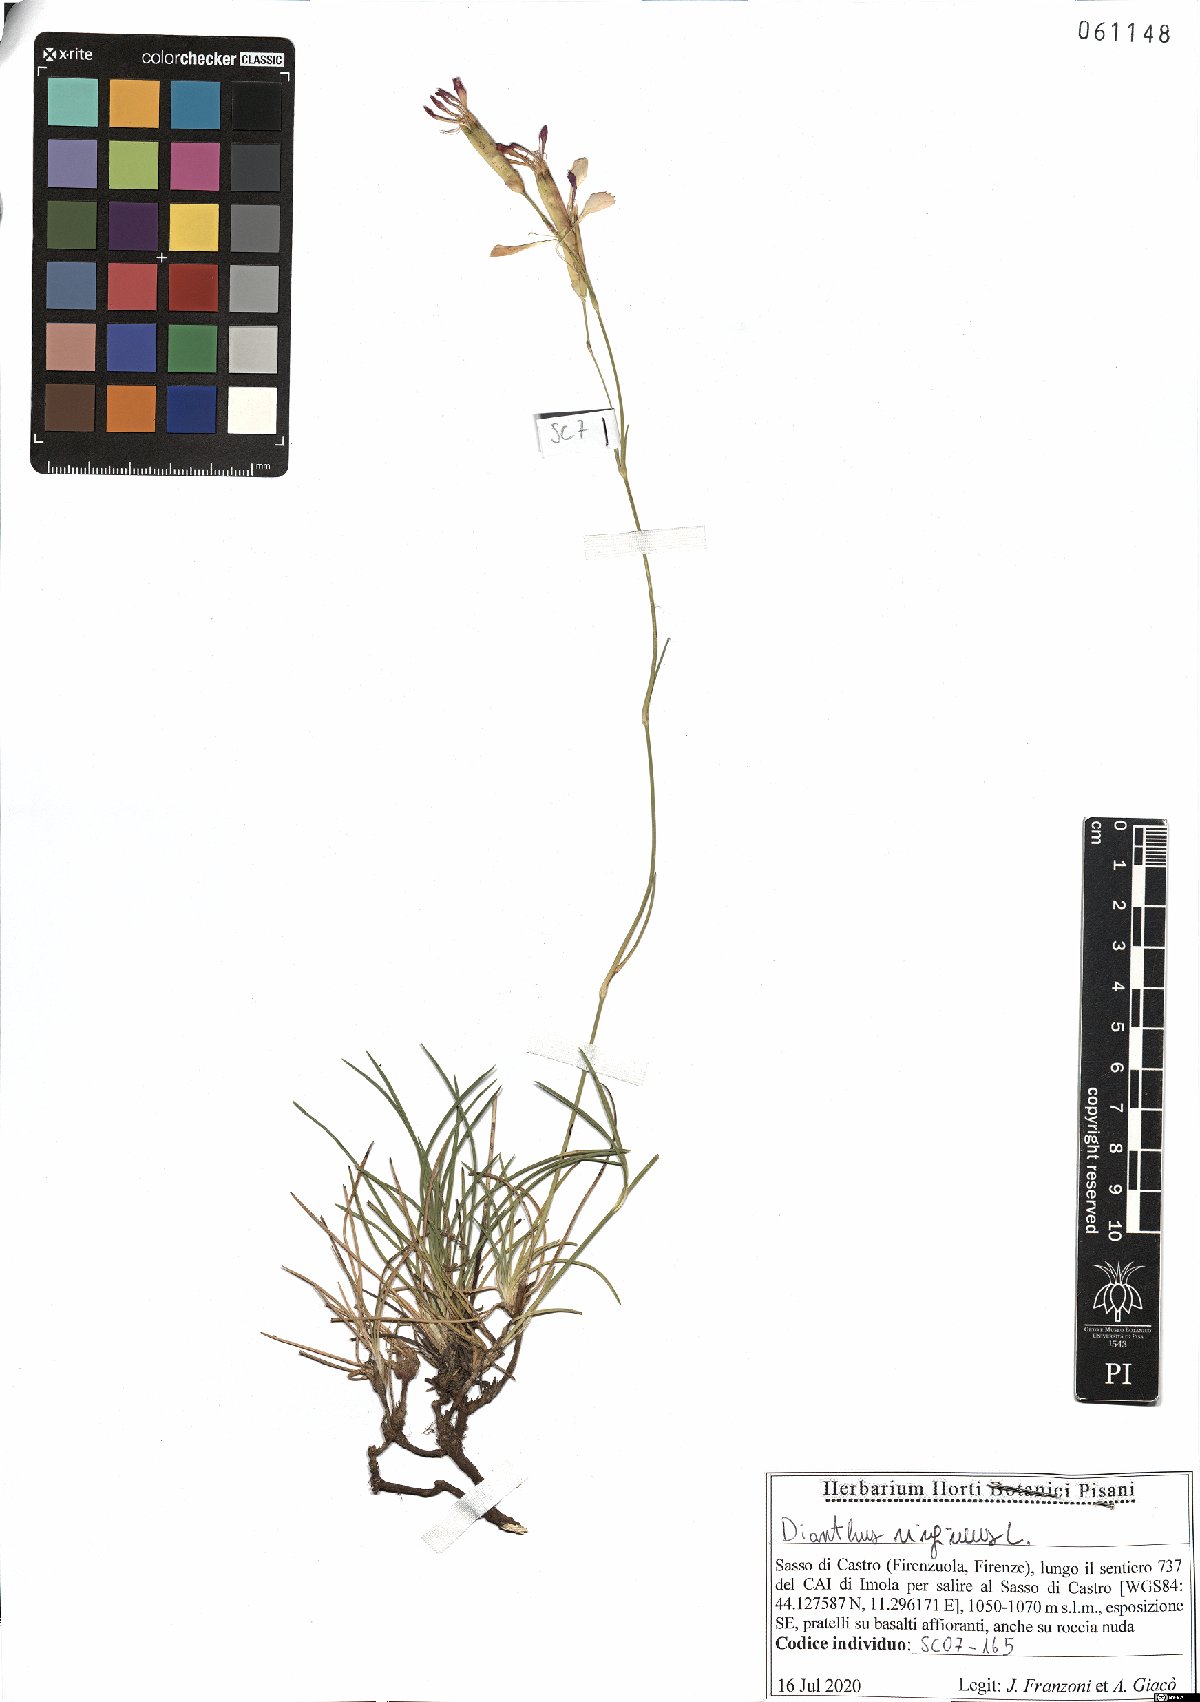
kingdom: Plantae
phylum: Tracheophyta
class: Magnoliopsida
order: Caryophyllales
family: Caryophyllaceae
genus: Dianthus
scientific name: Dianthus virgineus
